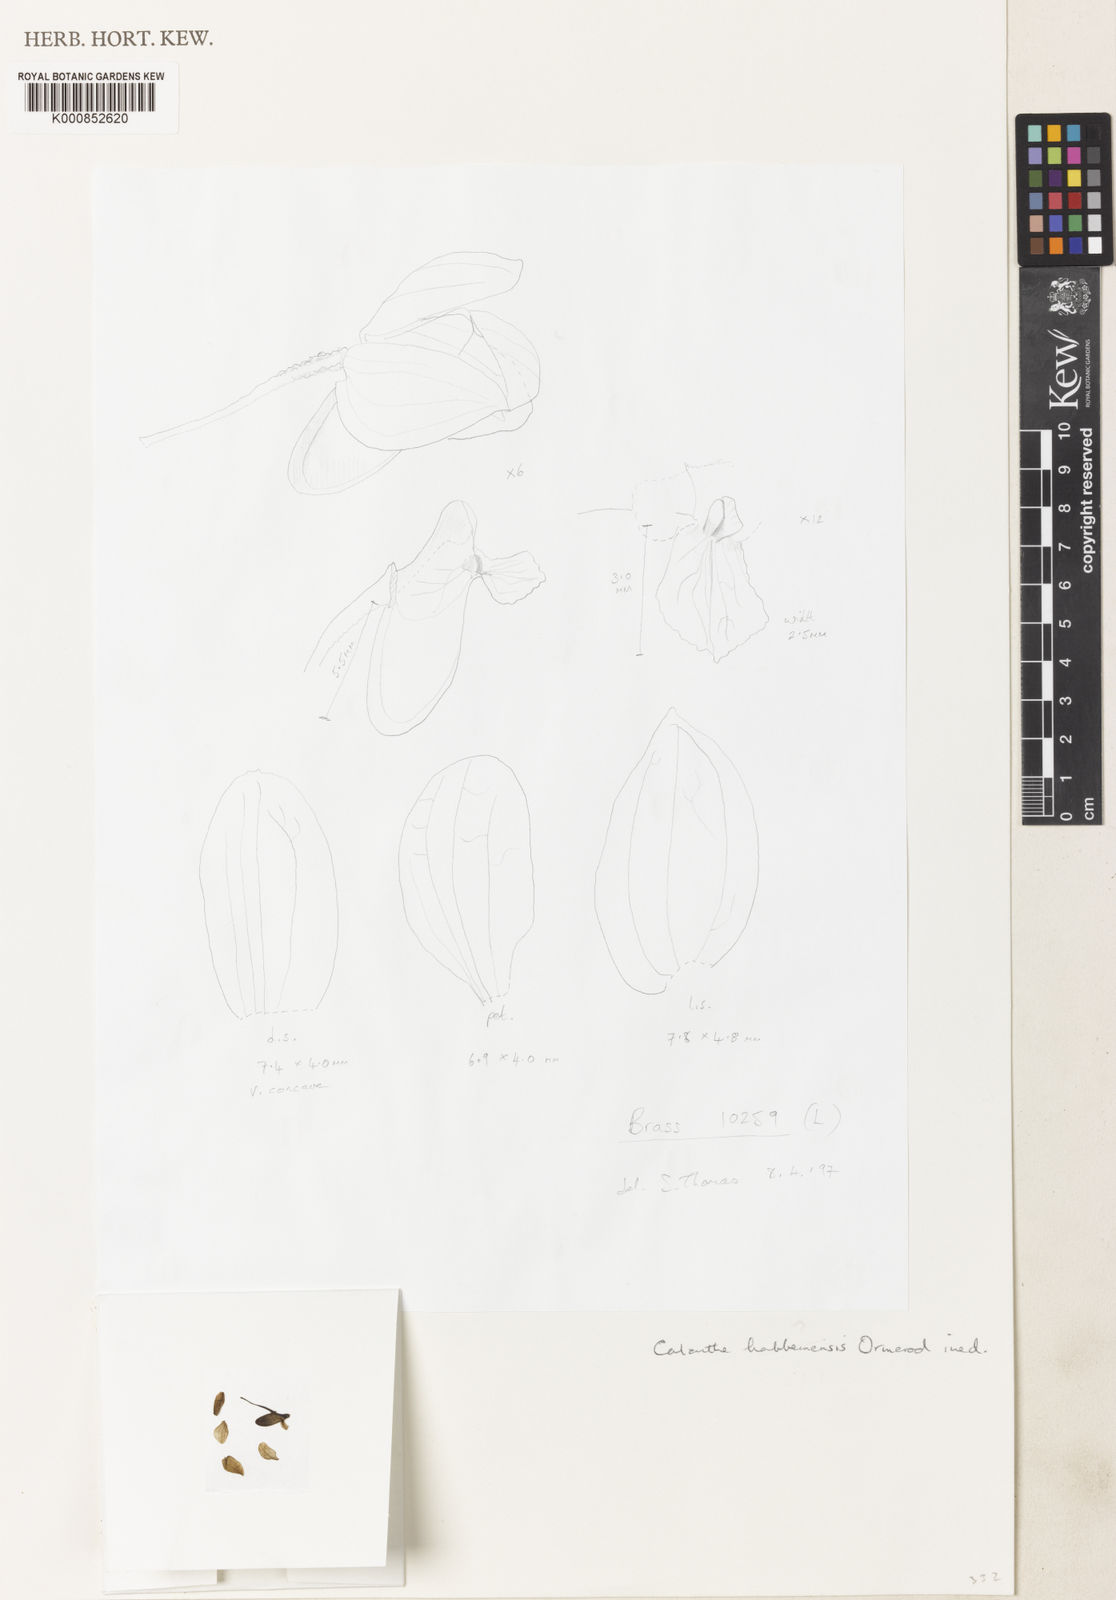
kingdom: Plantae
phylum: Tracheophyta
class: Liliopsida
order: Asparagales
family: Orchidaceae
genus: Calanthe
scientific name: Calanthe habbemensis
